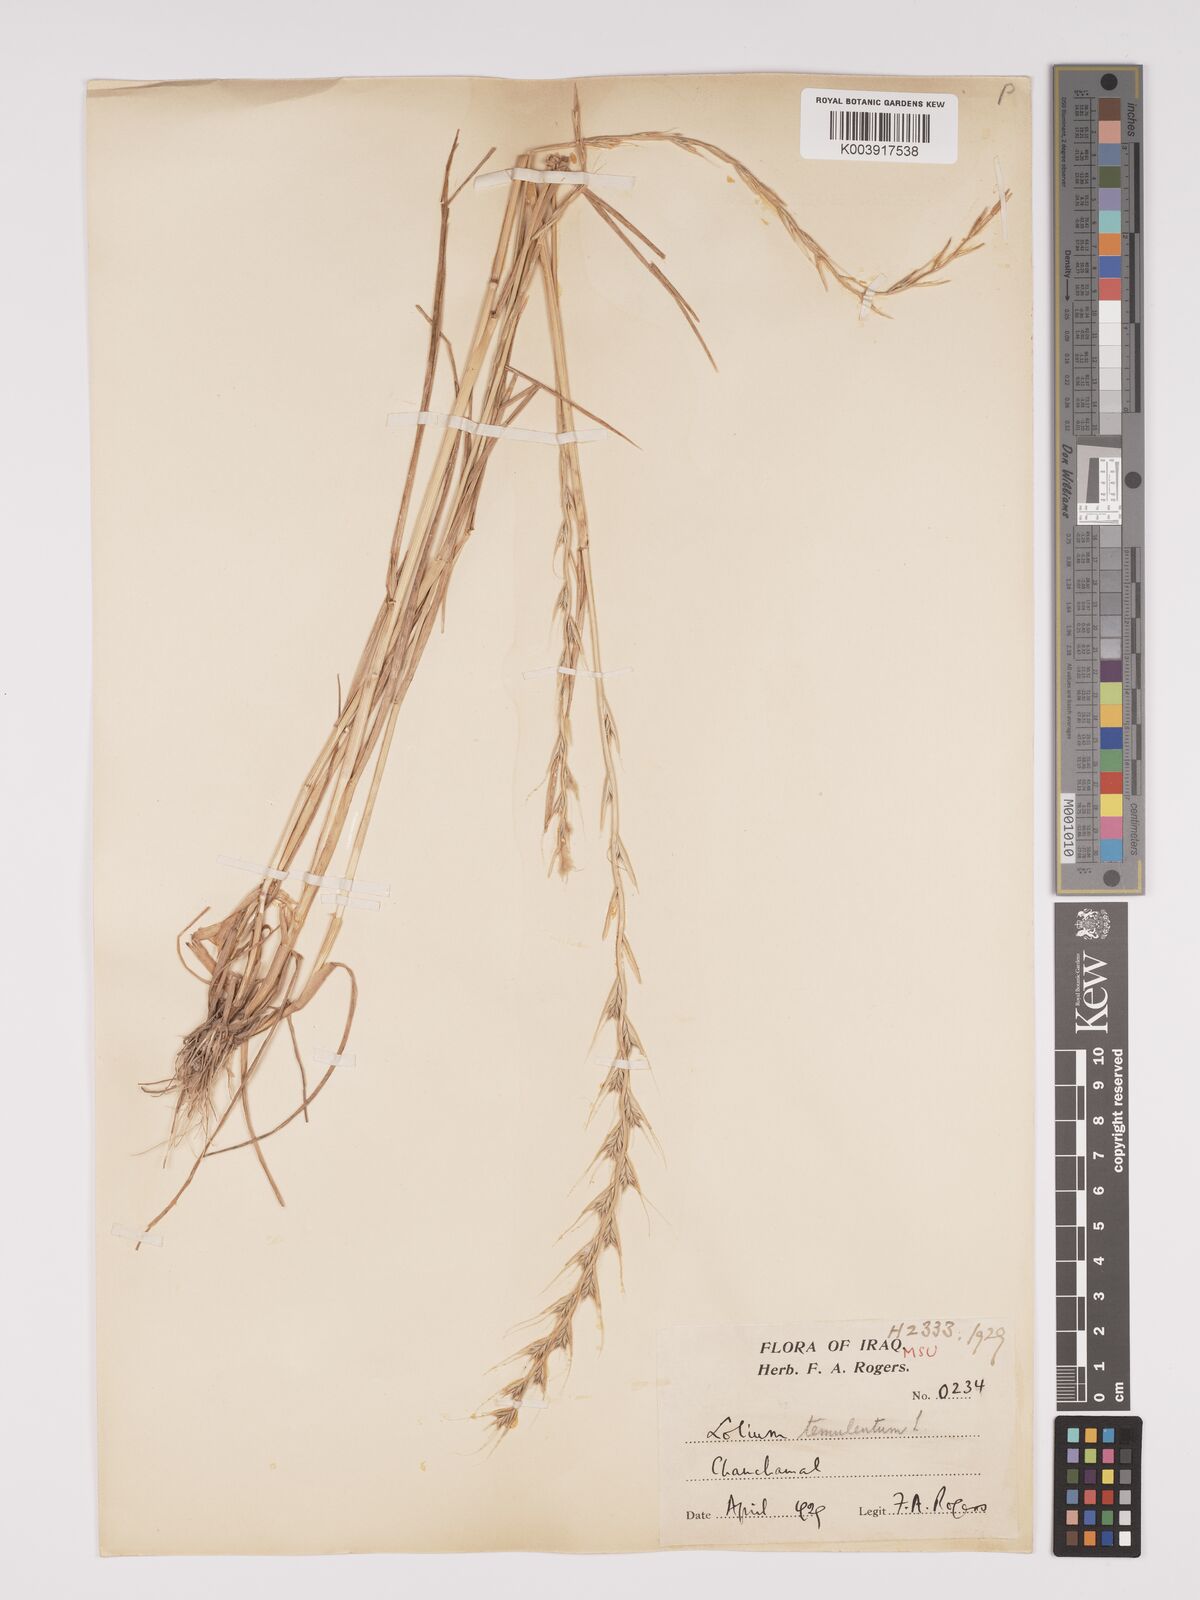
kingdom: Plantae
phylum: Tracheophyta
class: Liliopsida
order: Poales
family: Poaceae
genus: Lolium
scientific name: Lolium temulentum
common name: Darnel
